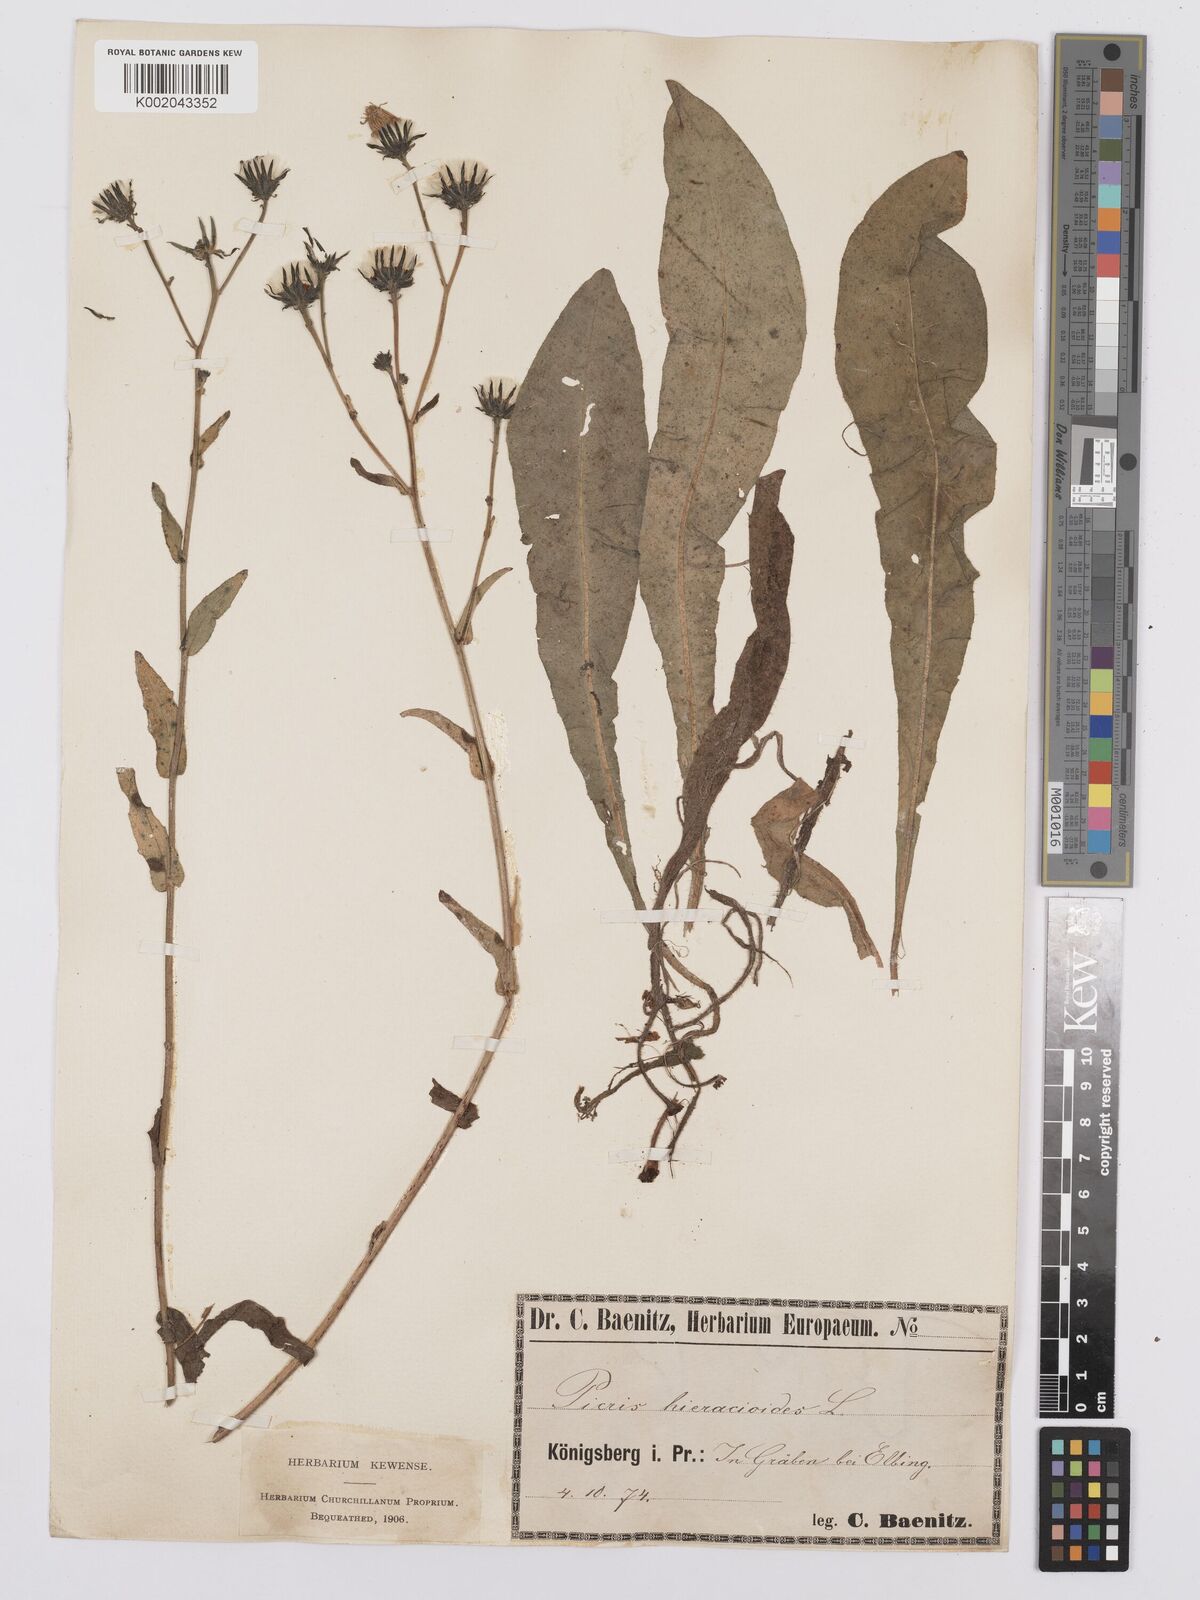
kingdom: Plantae
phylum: Tracheophyta
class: Magnoliopsida
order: Asterales
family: Asteraceae
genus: Picris
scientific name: Picris hieracioides
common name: Hawkweed oxtongue
